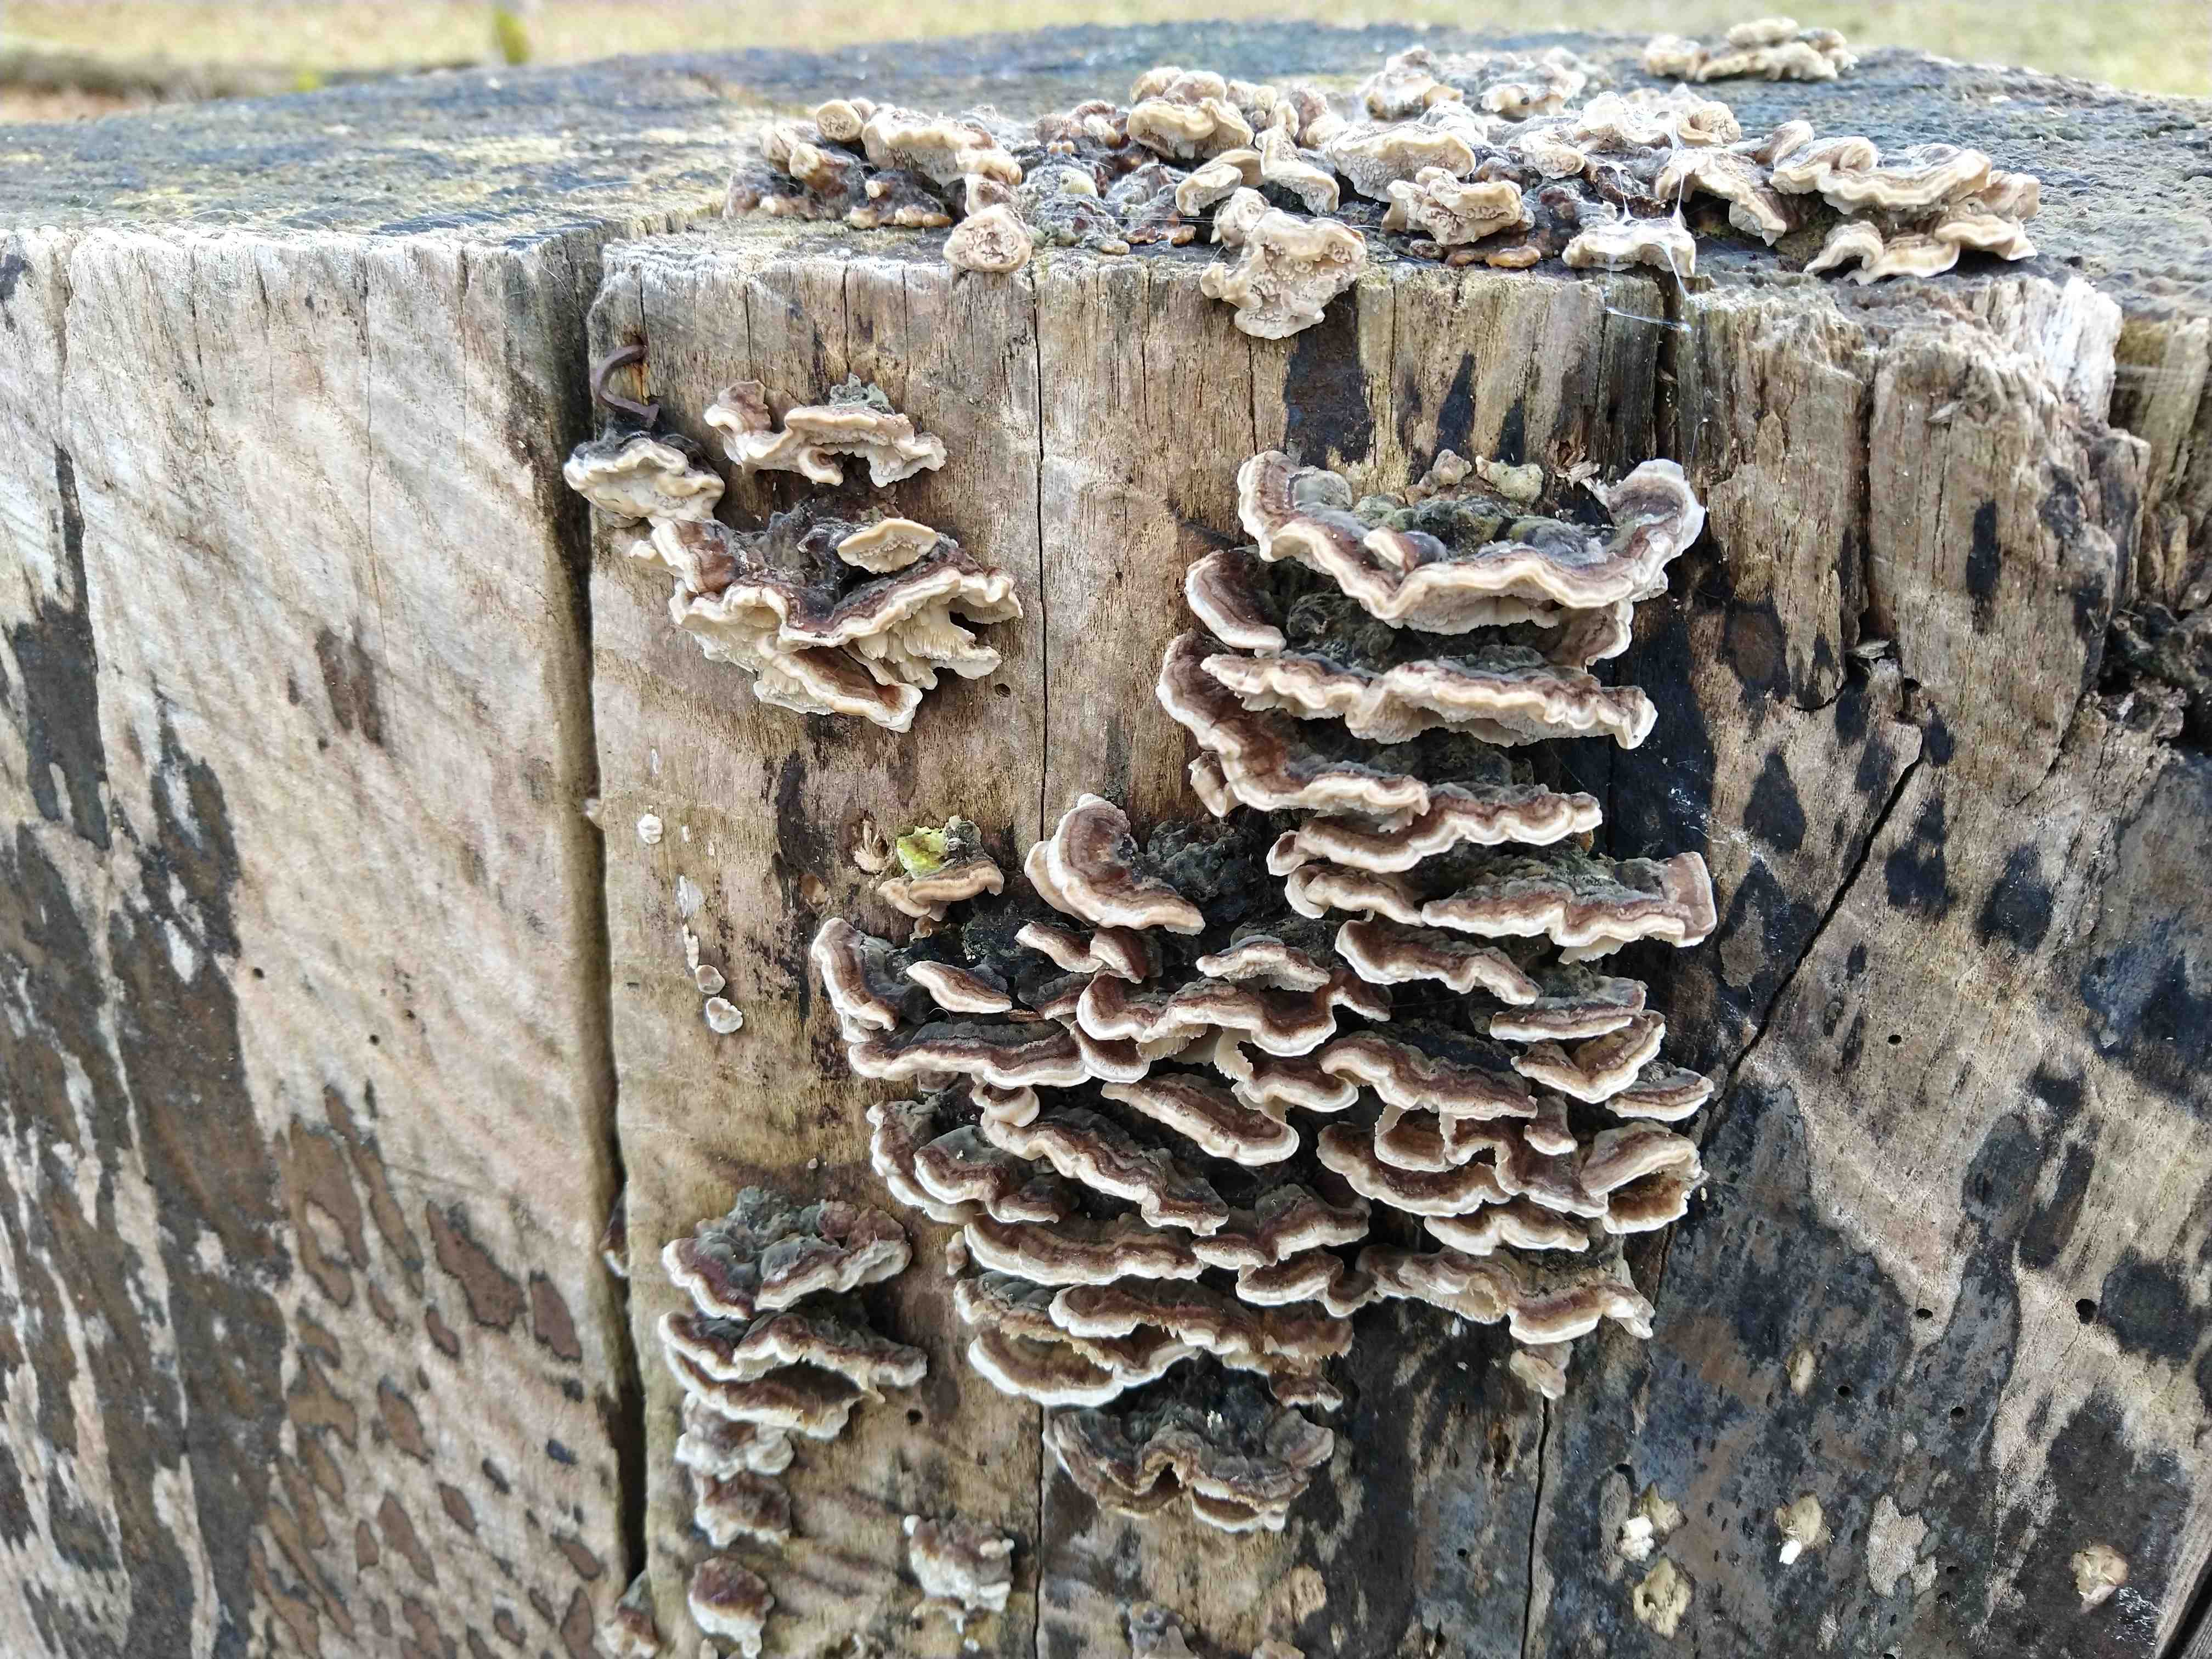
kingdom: Fungi
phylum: Basidiomycota
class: Agaricomycetes
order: Polyporales
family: Polyporaceae
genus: Trametes
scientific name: Trametes versicolor
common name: broget læderporesvamp
